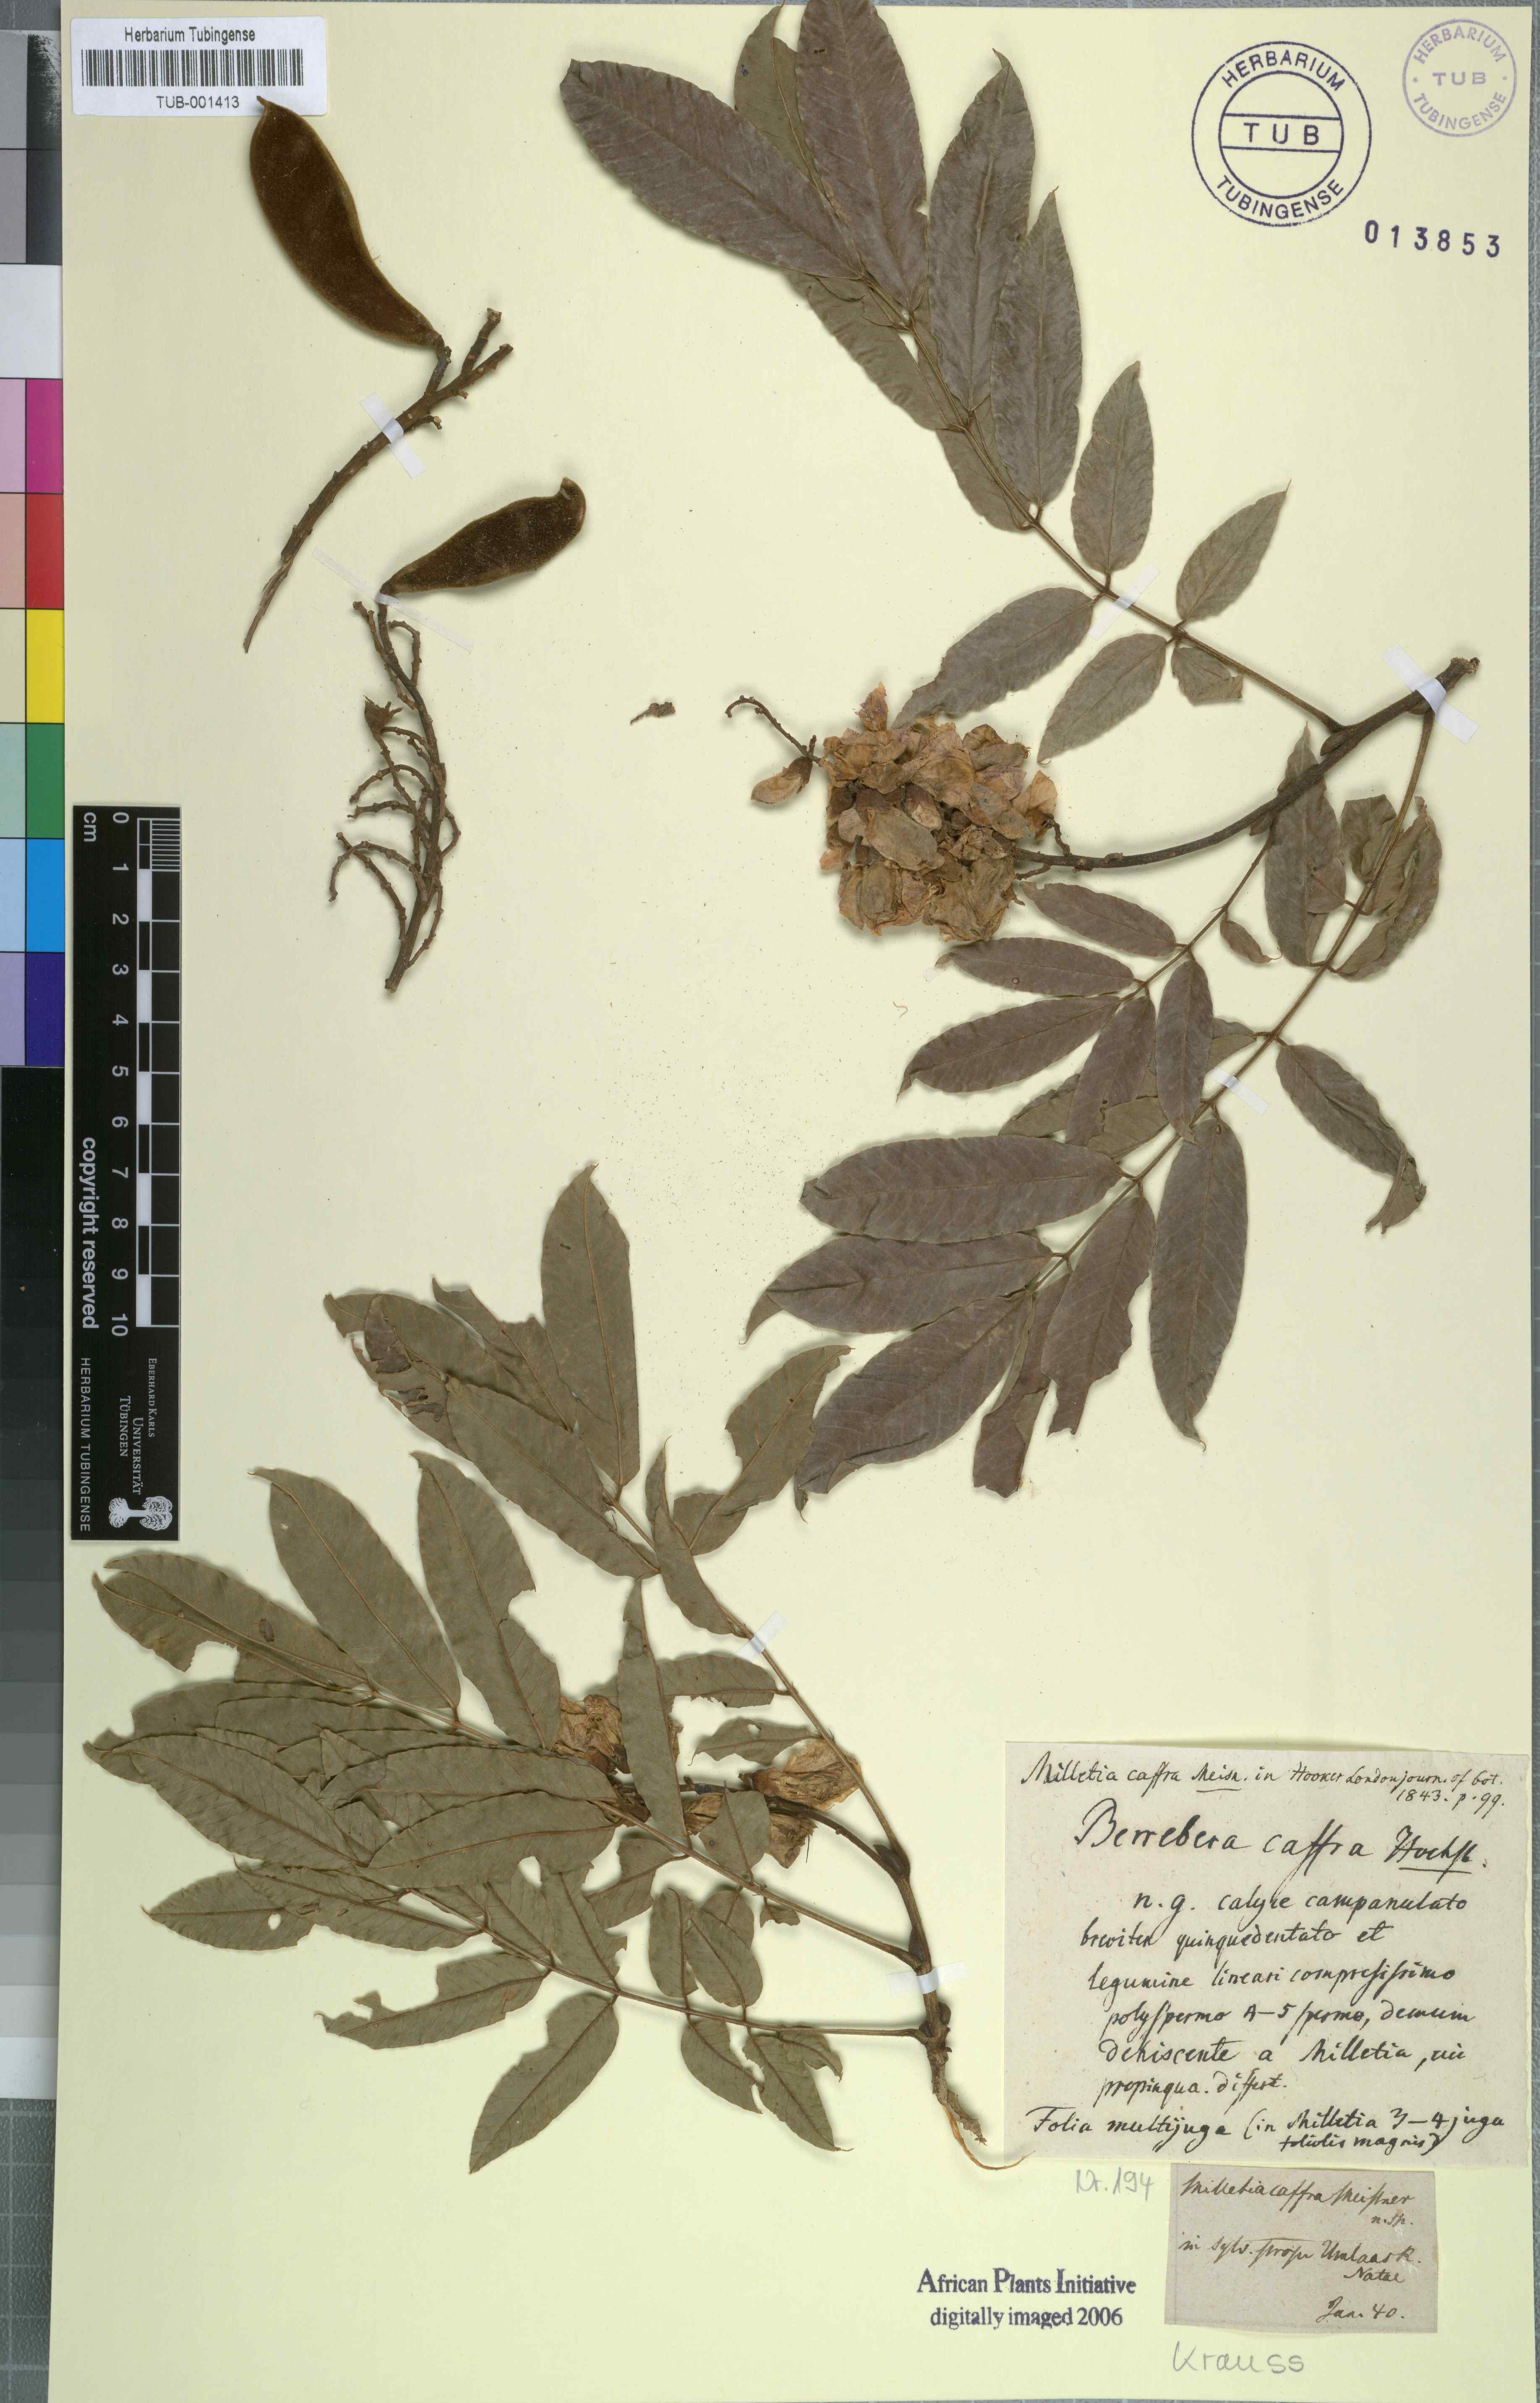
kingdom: Plantae
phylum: Tracheophyta
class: Magnoliopsida
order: Fabales
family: Fabaceae
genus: Millettia
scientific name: Millettia grandis
